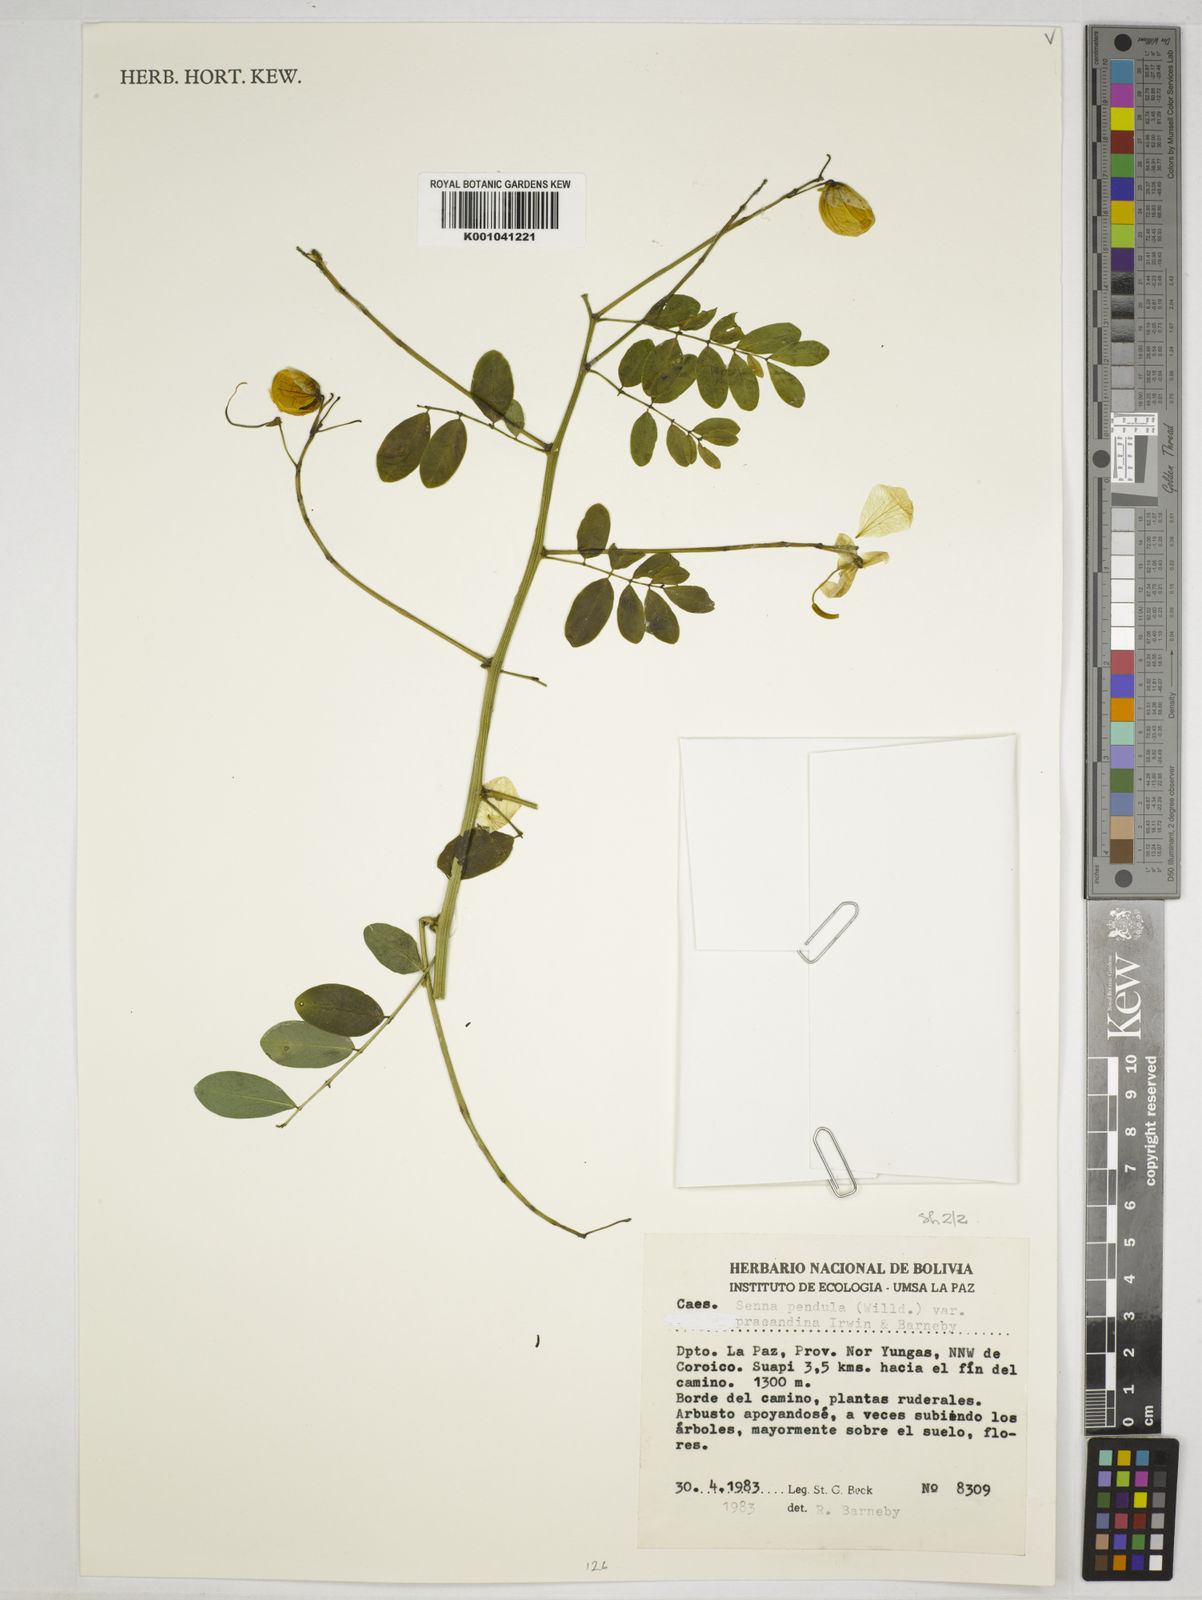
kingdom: Plantae
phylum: Tracheophyta
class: Magnoliopsida
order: Fabales
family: Fabaceae
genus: Senna
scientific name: Senna pendula
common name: Easter cassia
